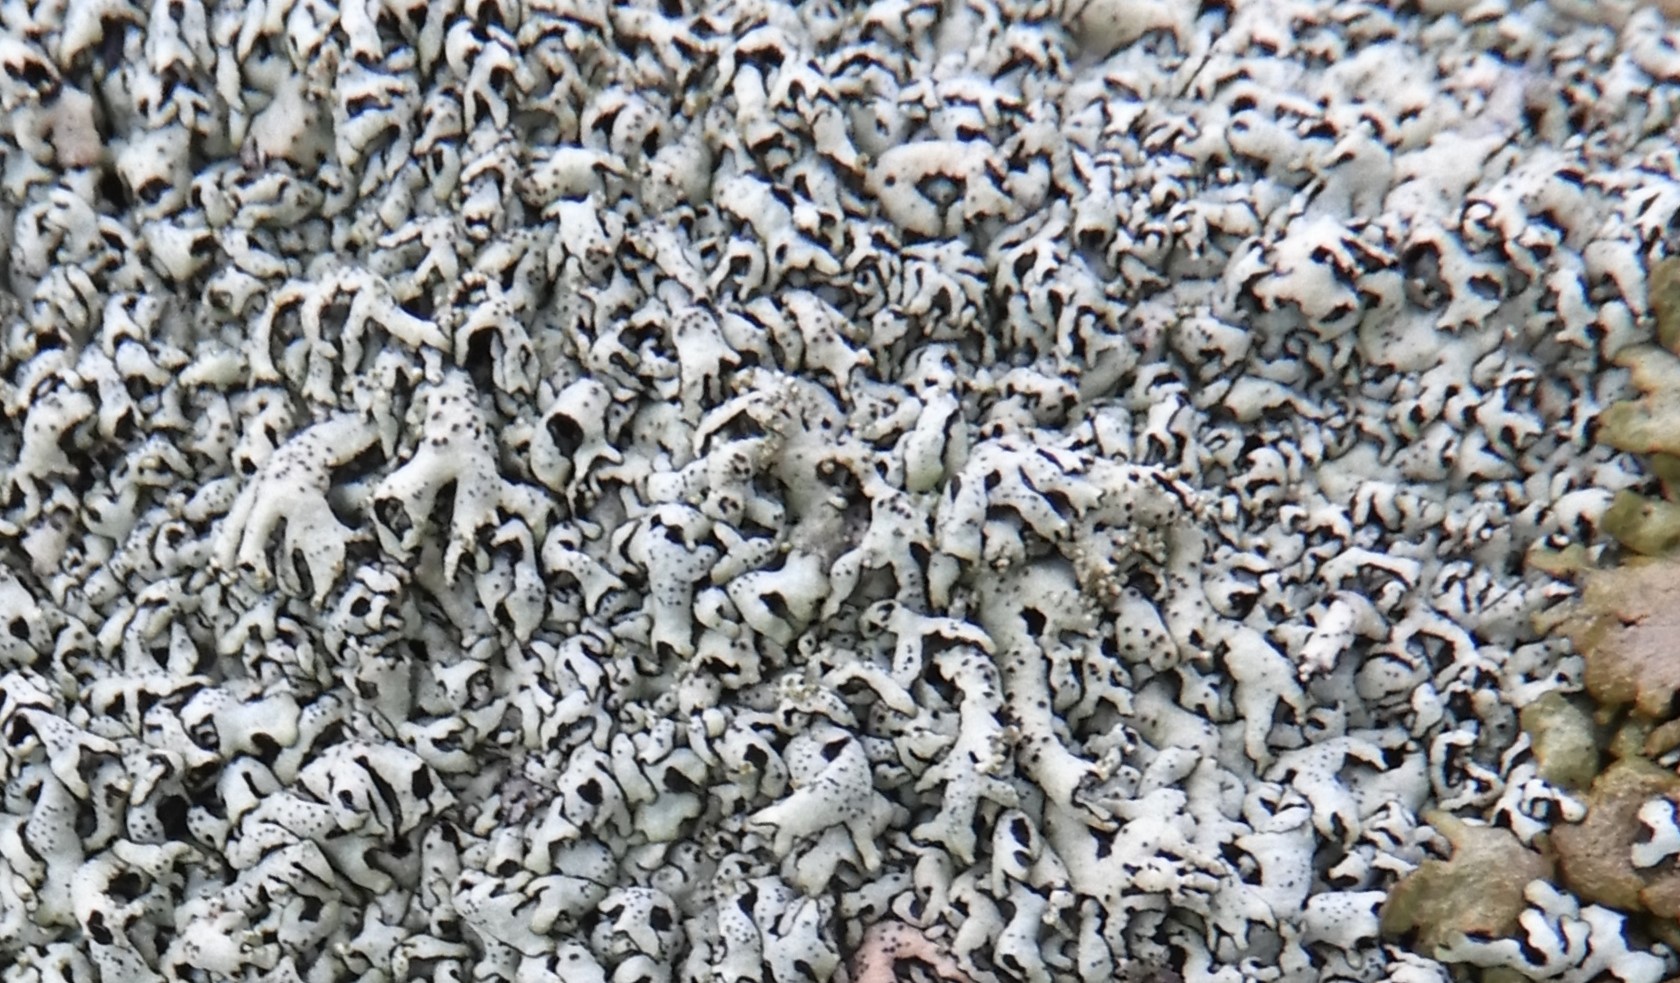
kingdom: Fungi
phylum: Ascomycota
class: Lecanoromycetes
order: Lecanorales
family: Parmeliaceae
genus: Xanthoparmelia
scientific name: Xanthoparmelia
